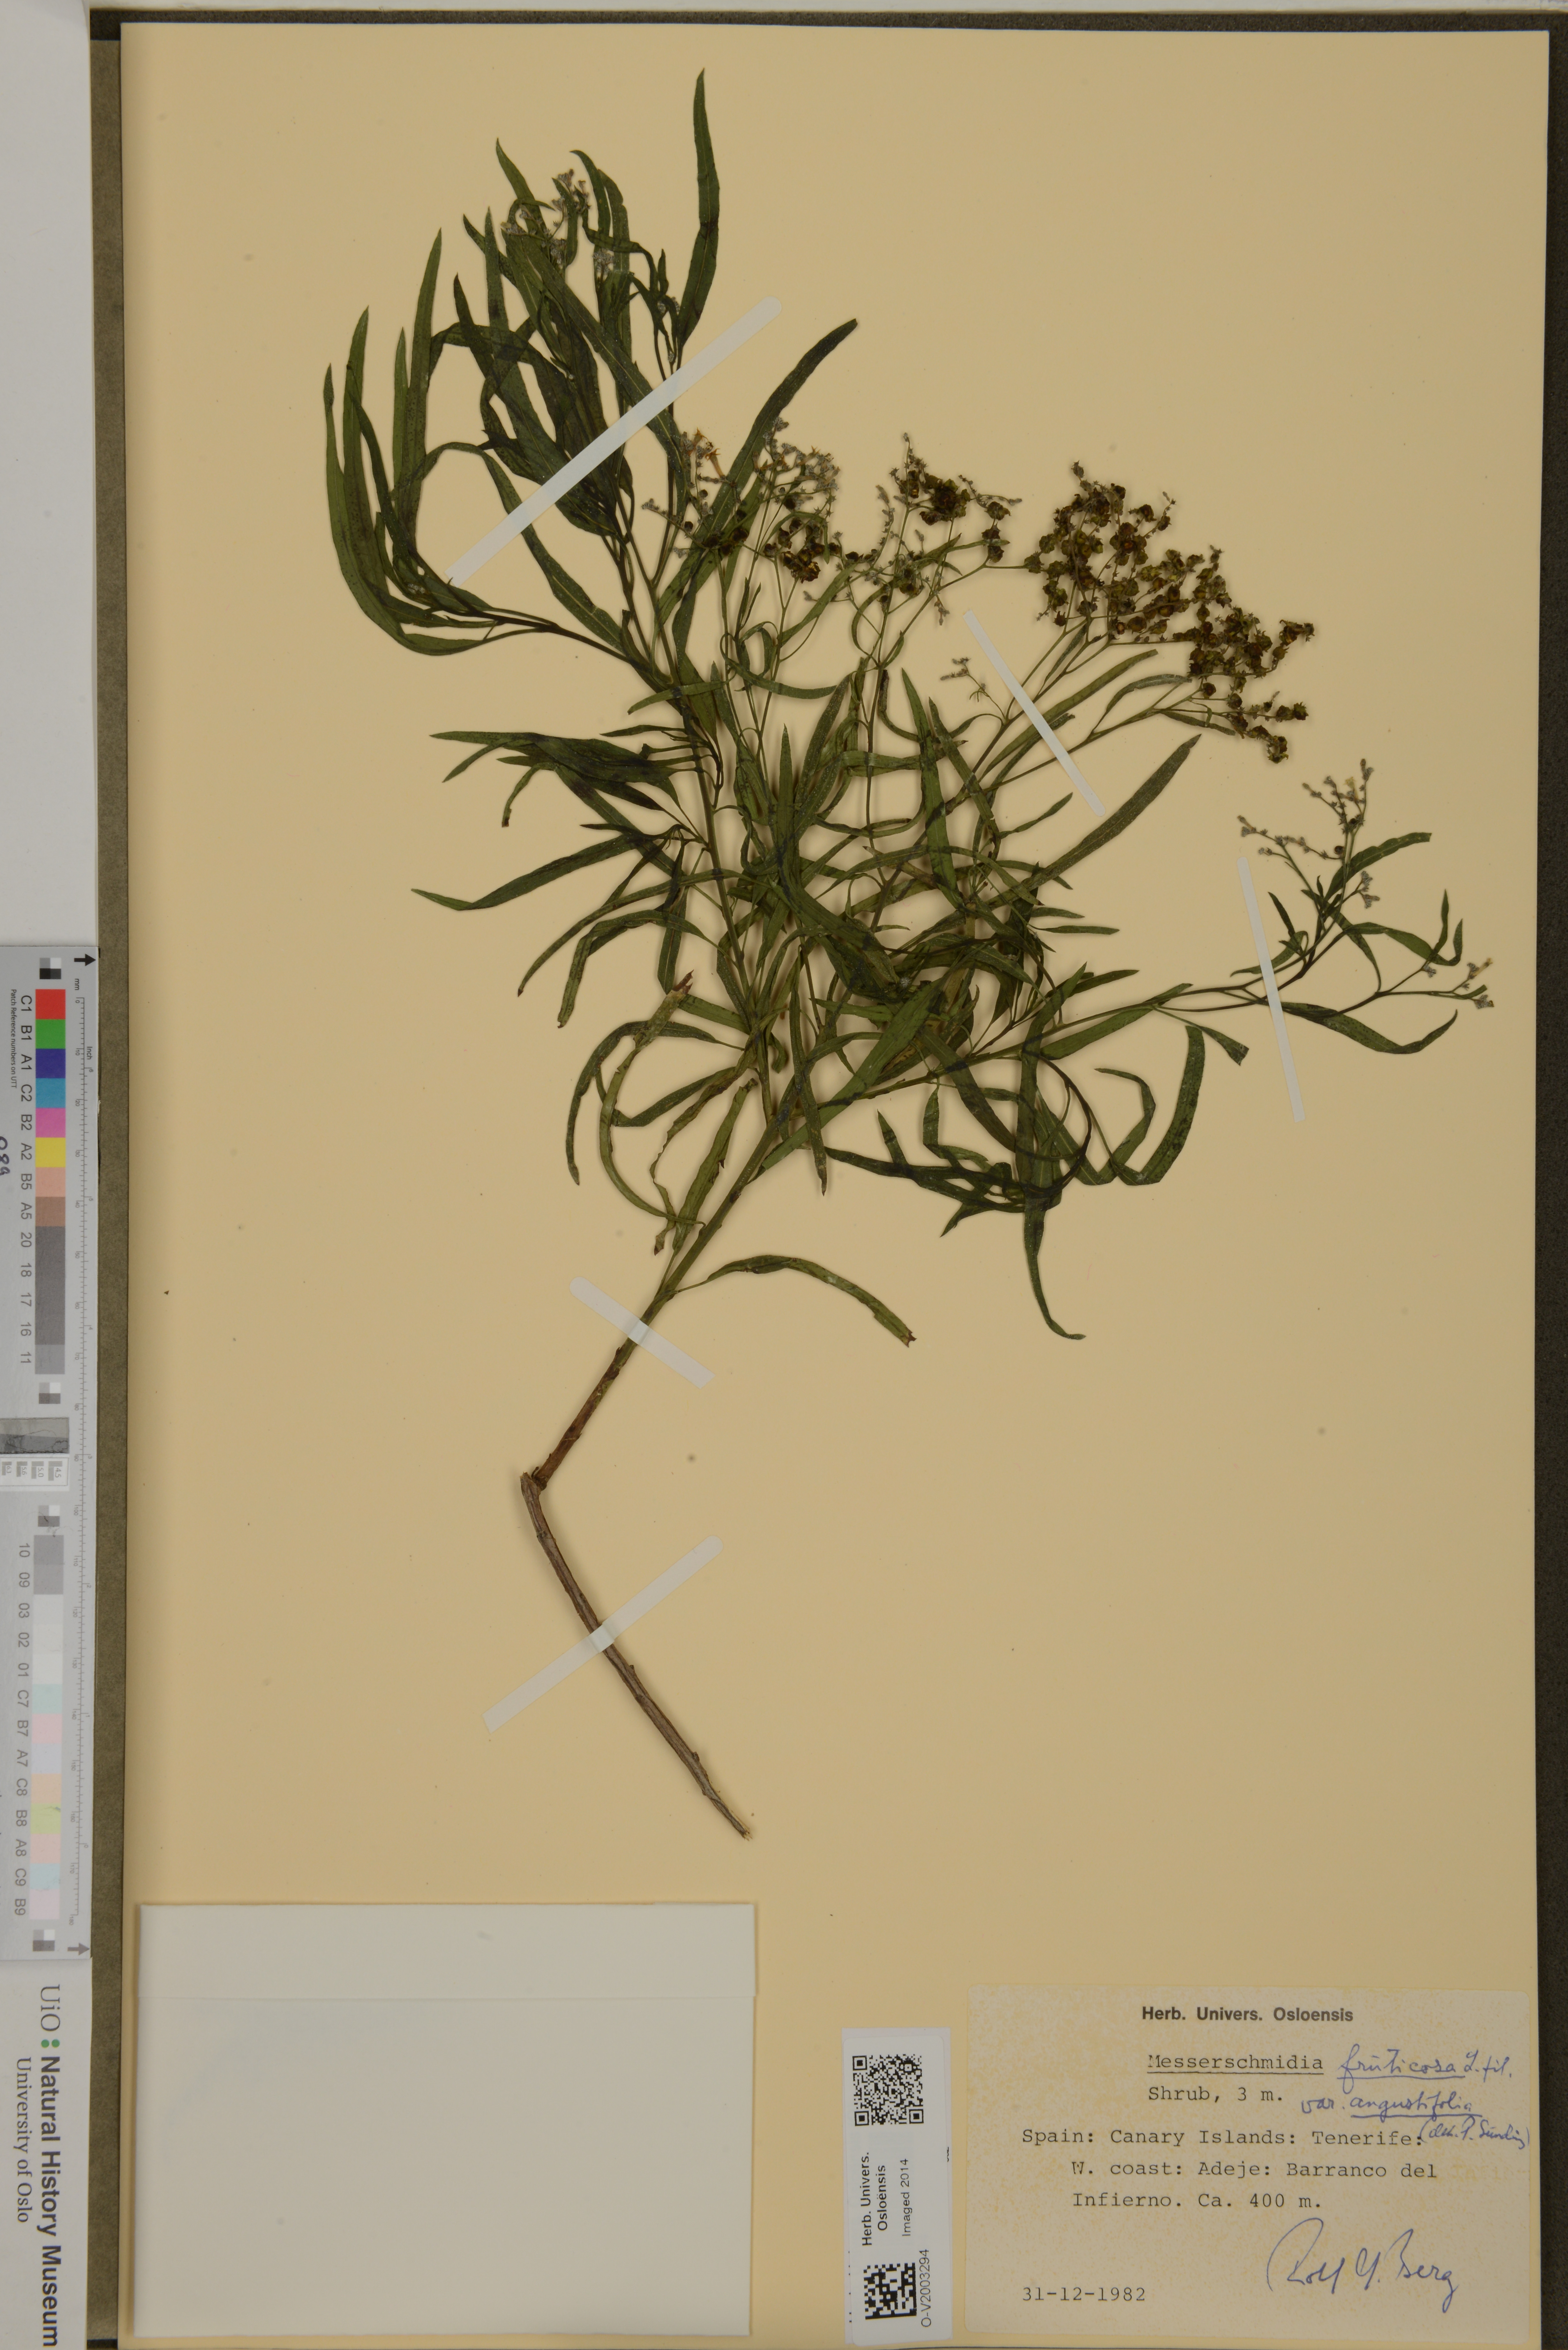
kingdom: Plantae
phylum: Tracheophyta
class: Magnoliopsida
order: Boraginales
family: Heliotropiaceae
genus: Heliotropium
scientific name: Heliotropium messerschmidioides
